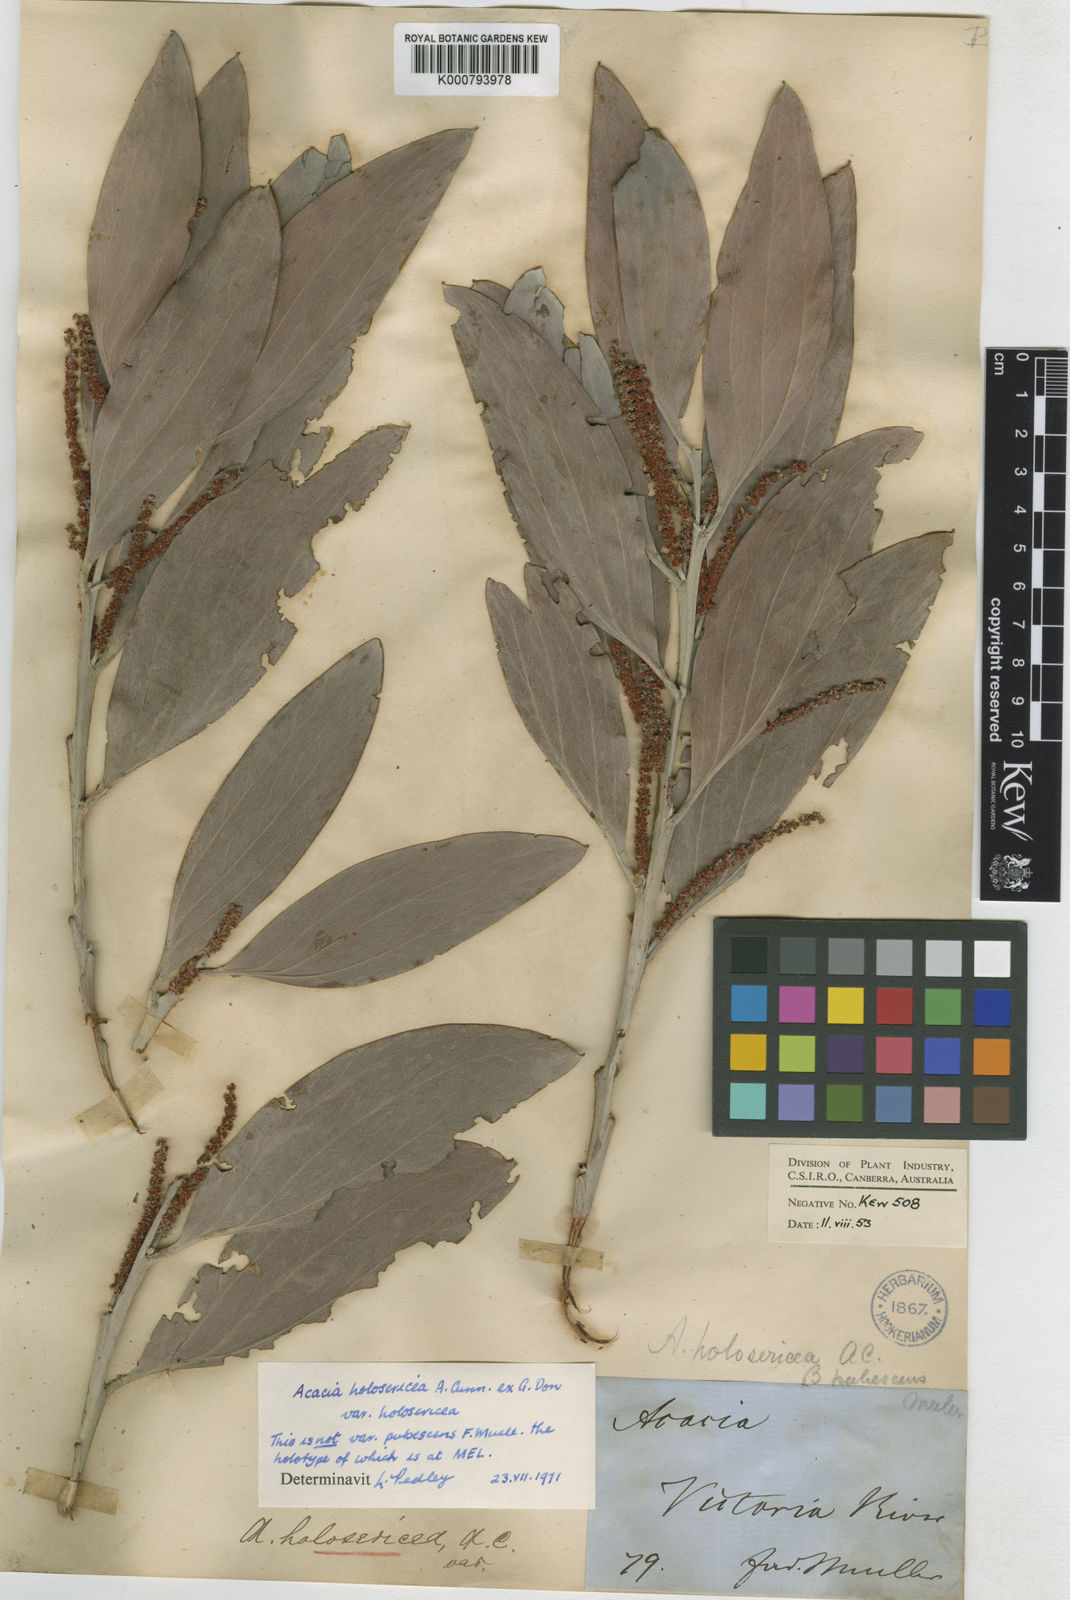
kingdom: Plantae
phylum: Tracheophyta
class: Magnoliopsida
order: Fabales
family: Fabaceae
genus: Acacia
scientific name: Acacia holosericea
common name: Candelabra wattle
